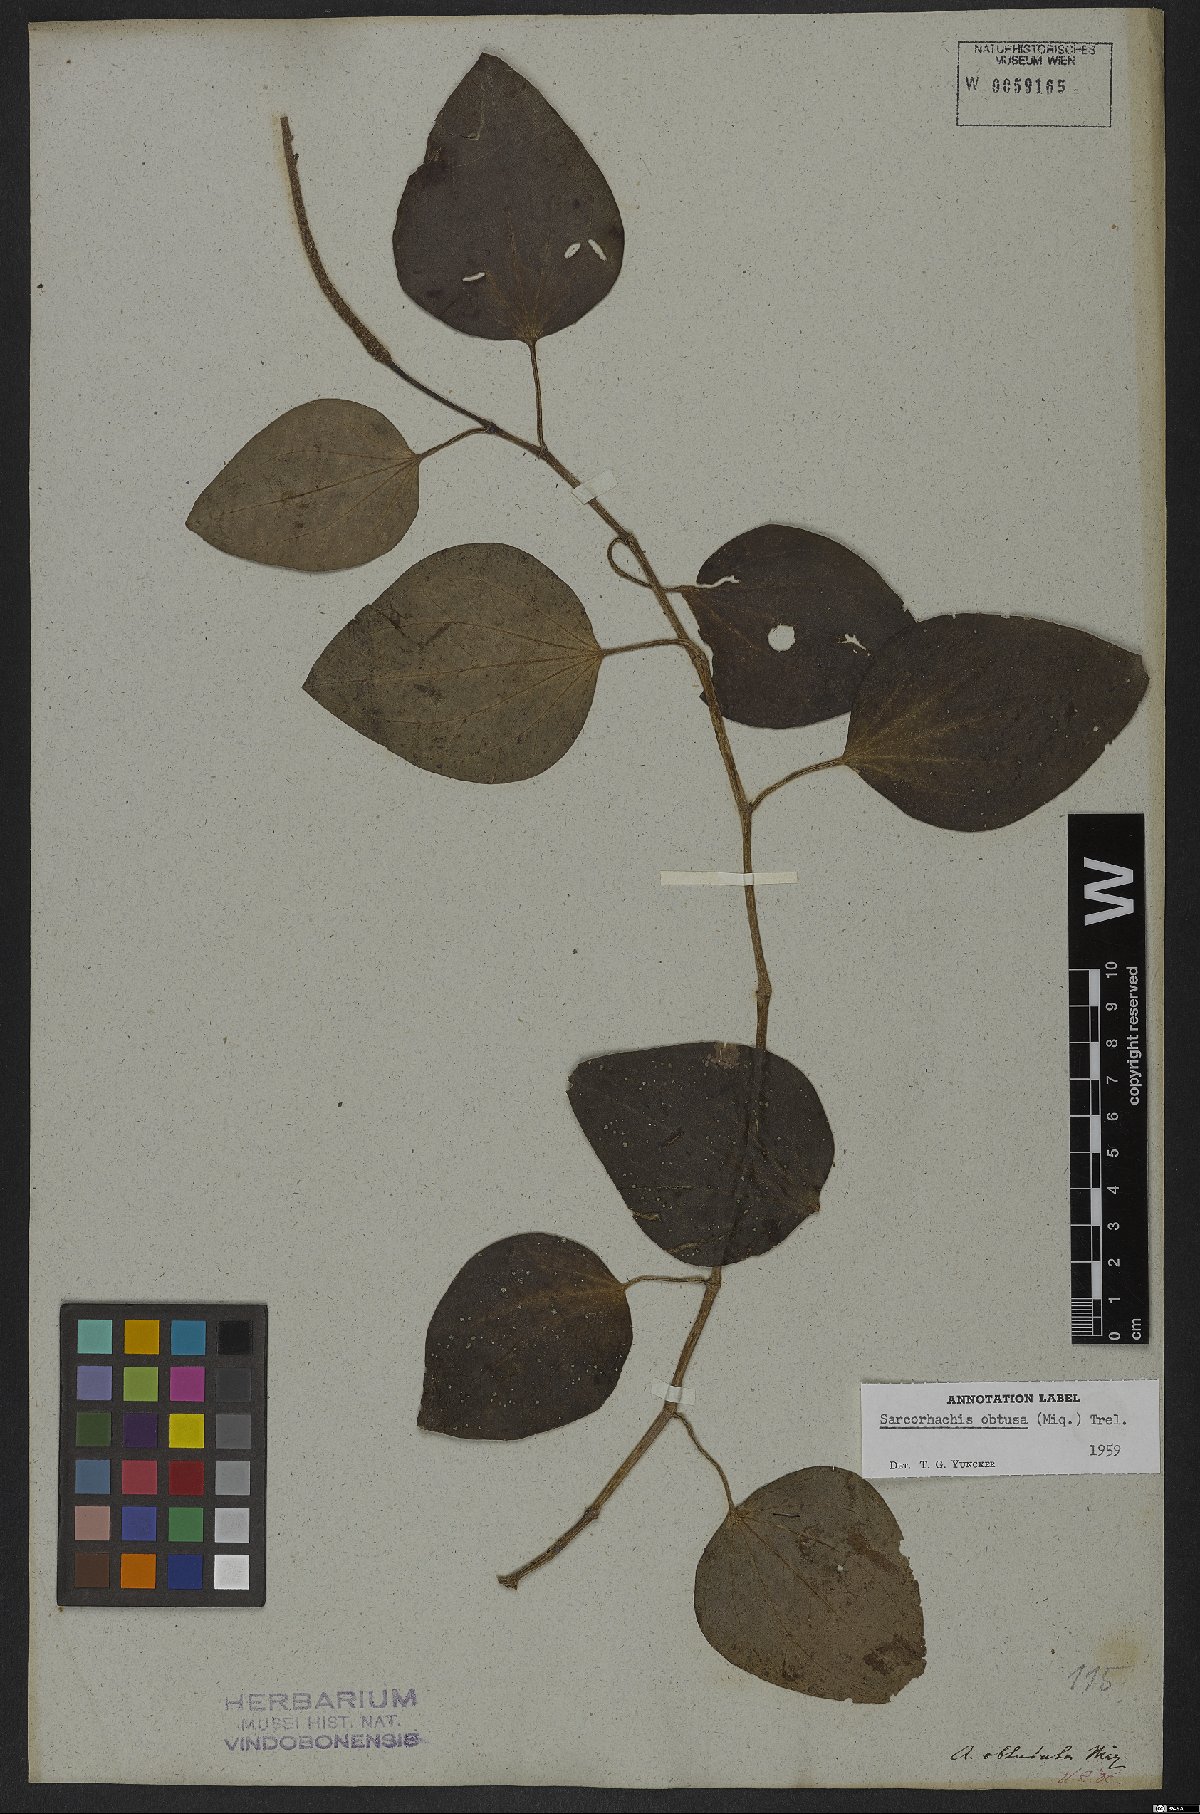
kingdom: Plantae
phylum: Tracheophyta
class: Magnoliopsida
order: Piperales
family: Piperaceae
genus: Manekia
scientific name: Manekia obtusa
